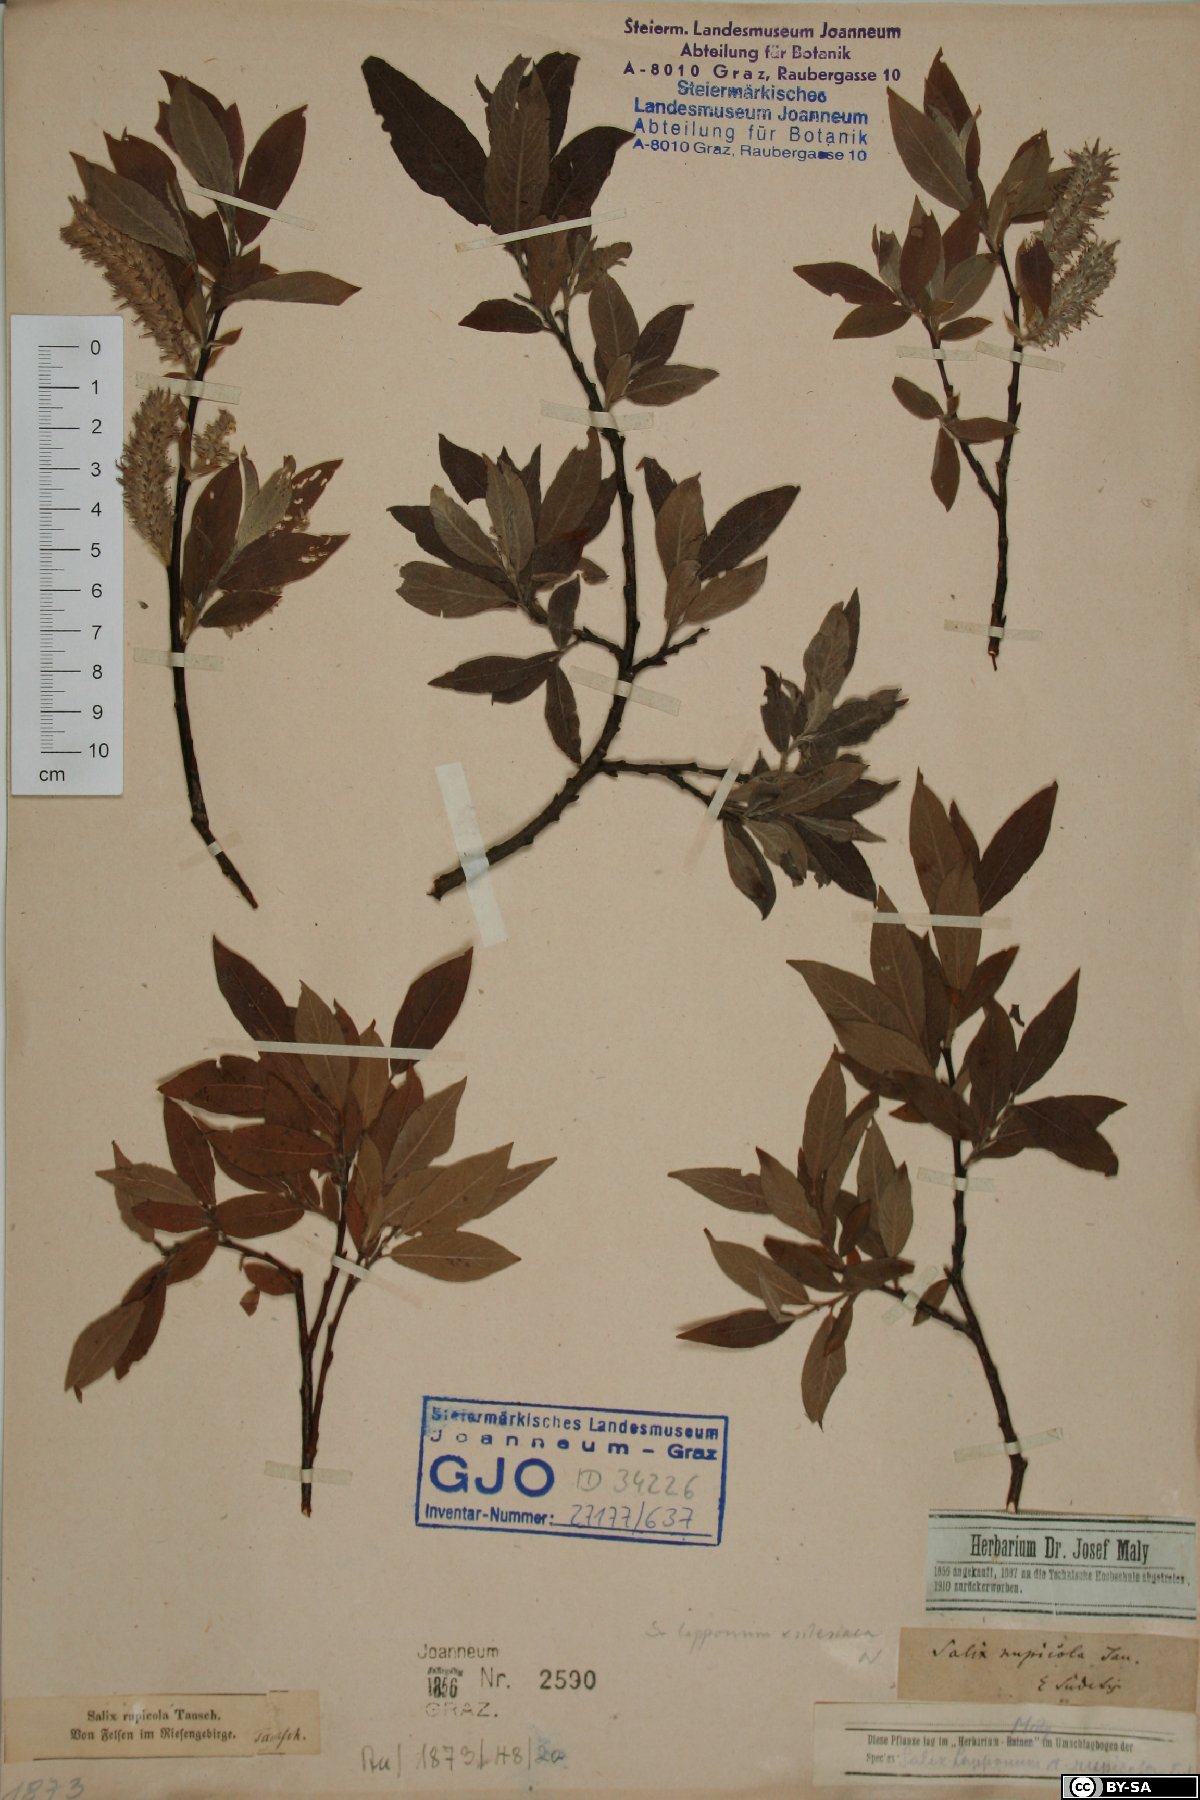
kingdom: Plantae
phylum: Tracheophyta
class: Magnoliopsida
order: Malpighiales
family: Salicaceae
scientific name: Salicaceae
